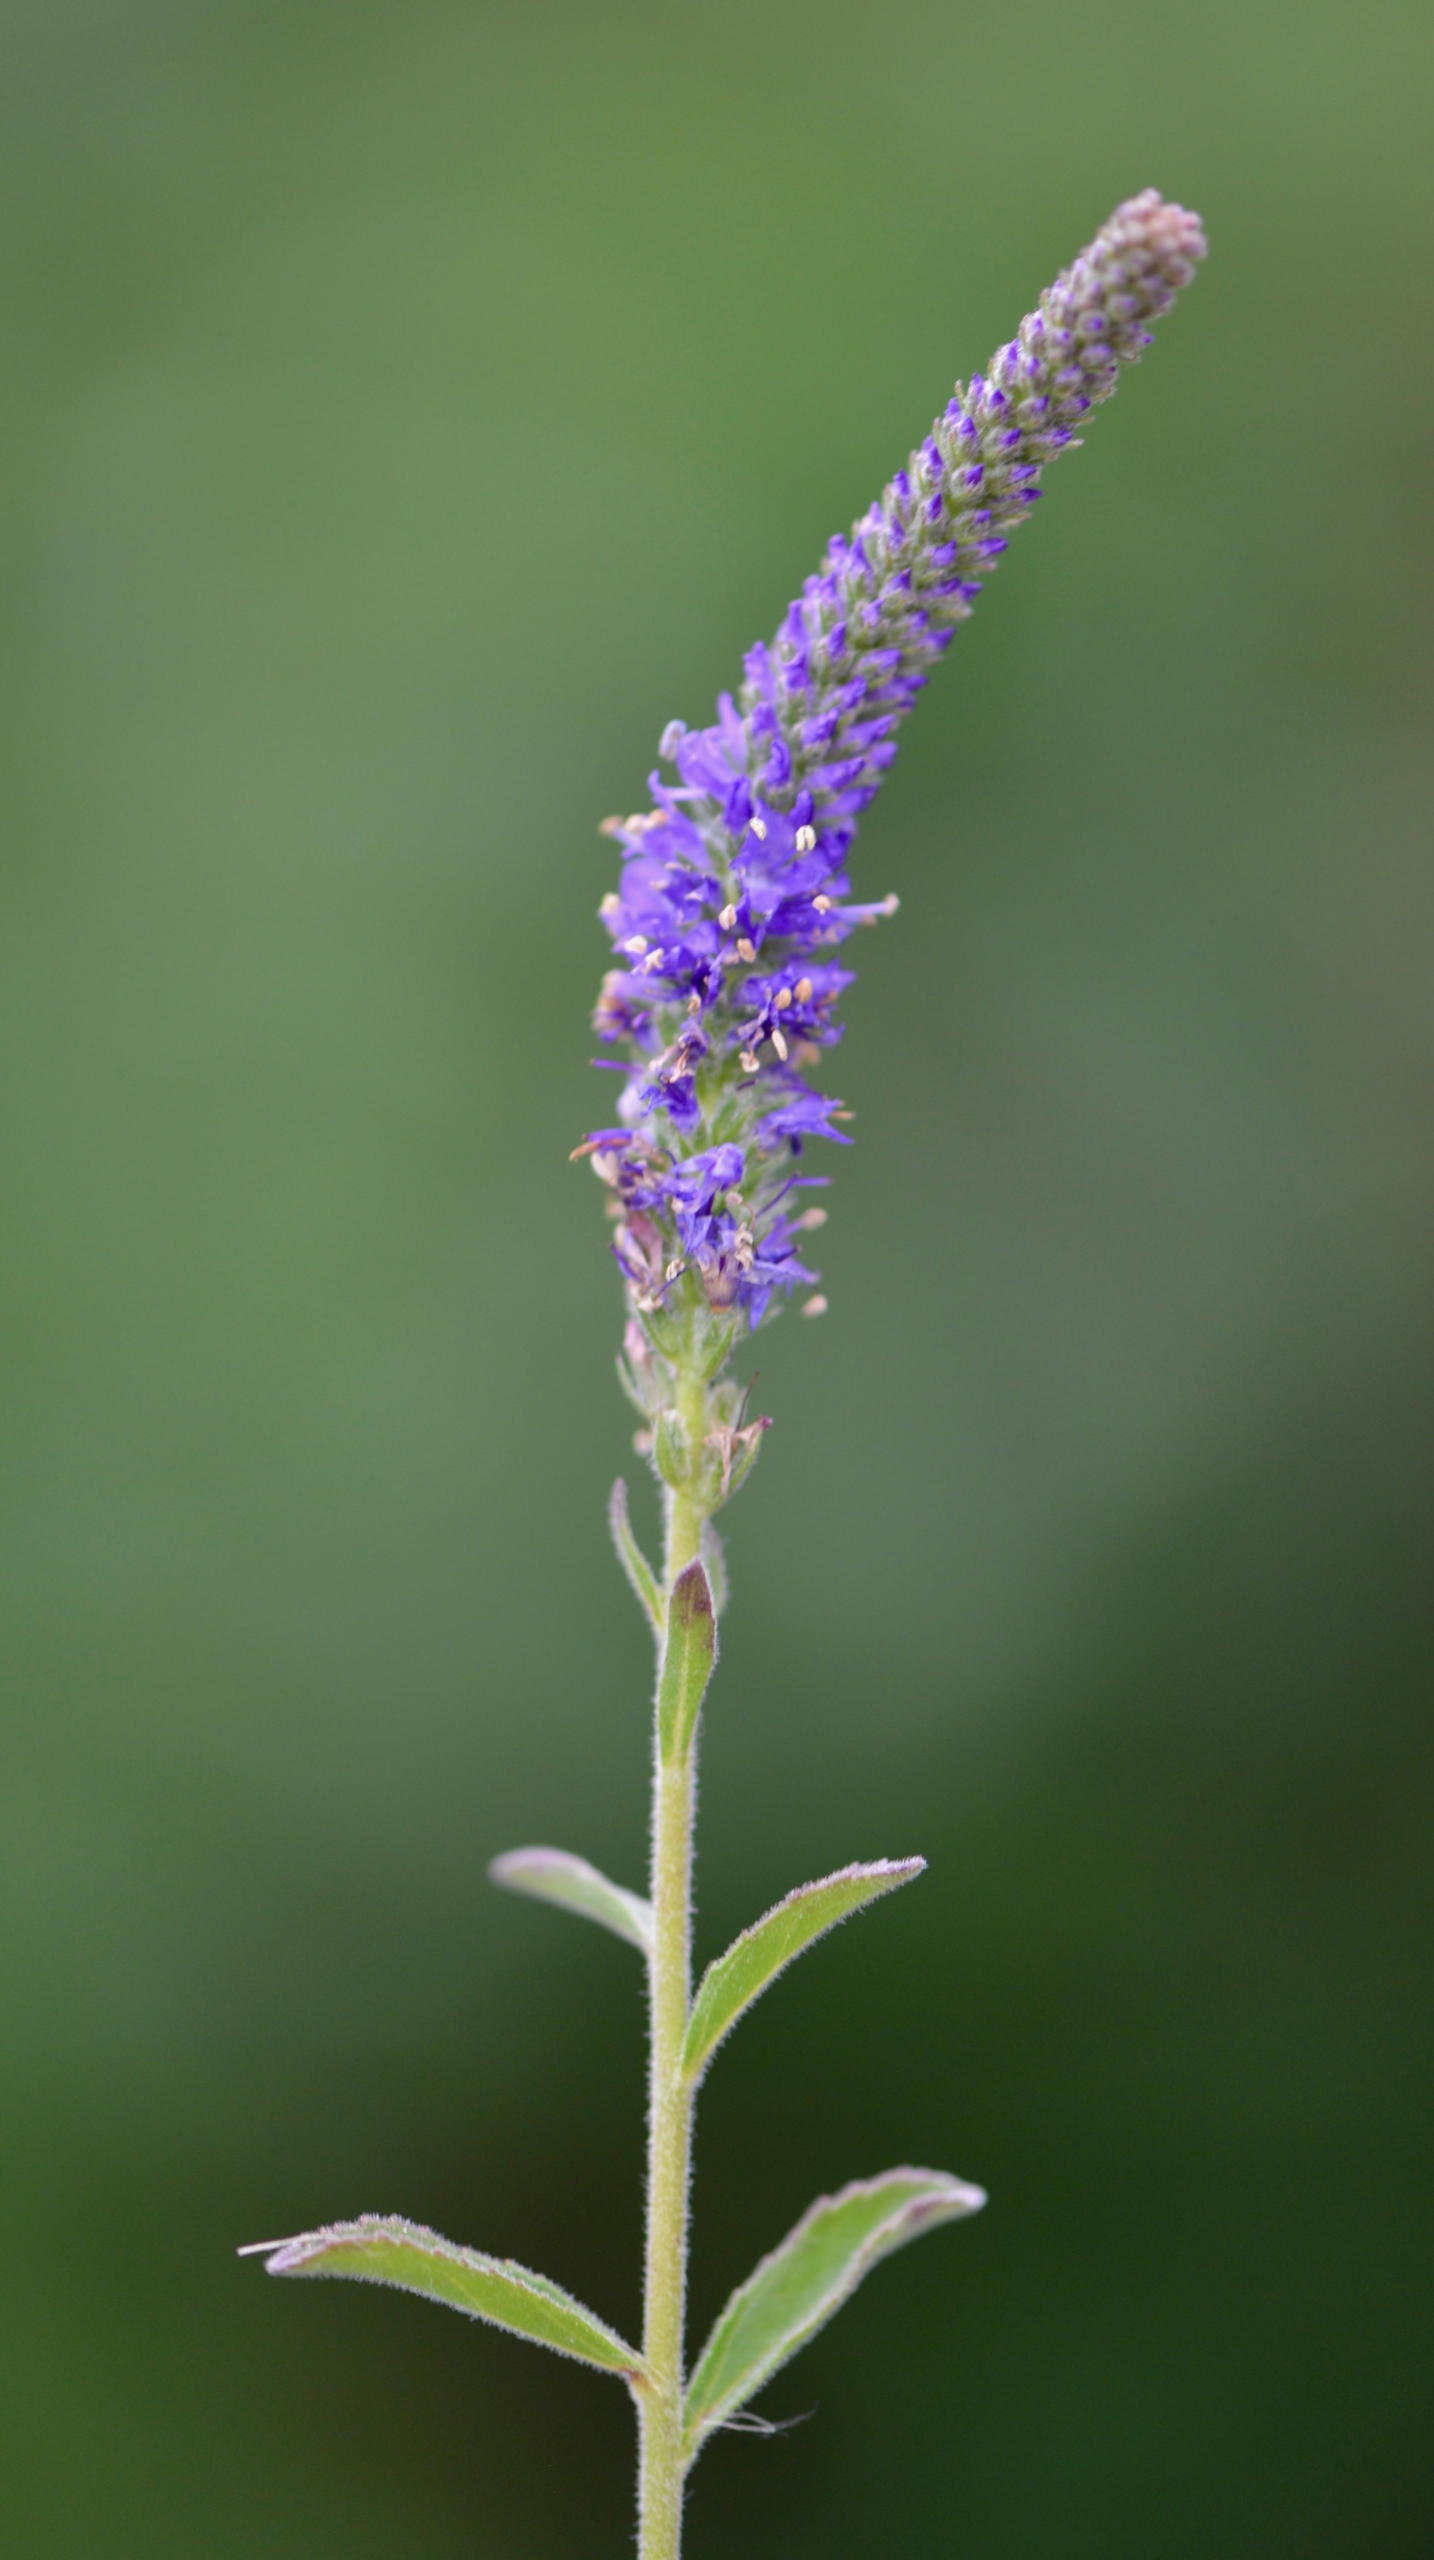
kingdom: Plantae
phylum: Tracheophyta
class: Magnoliopsida
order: Lamiales
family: Plantaginaceae
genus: Veronica
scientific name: Veronica spicata
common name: Aks-ærenpris
